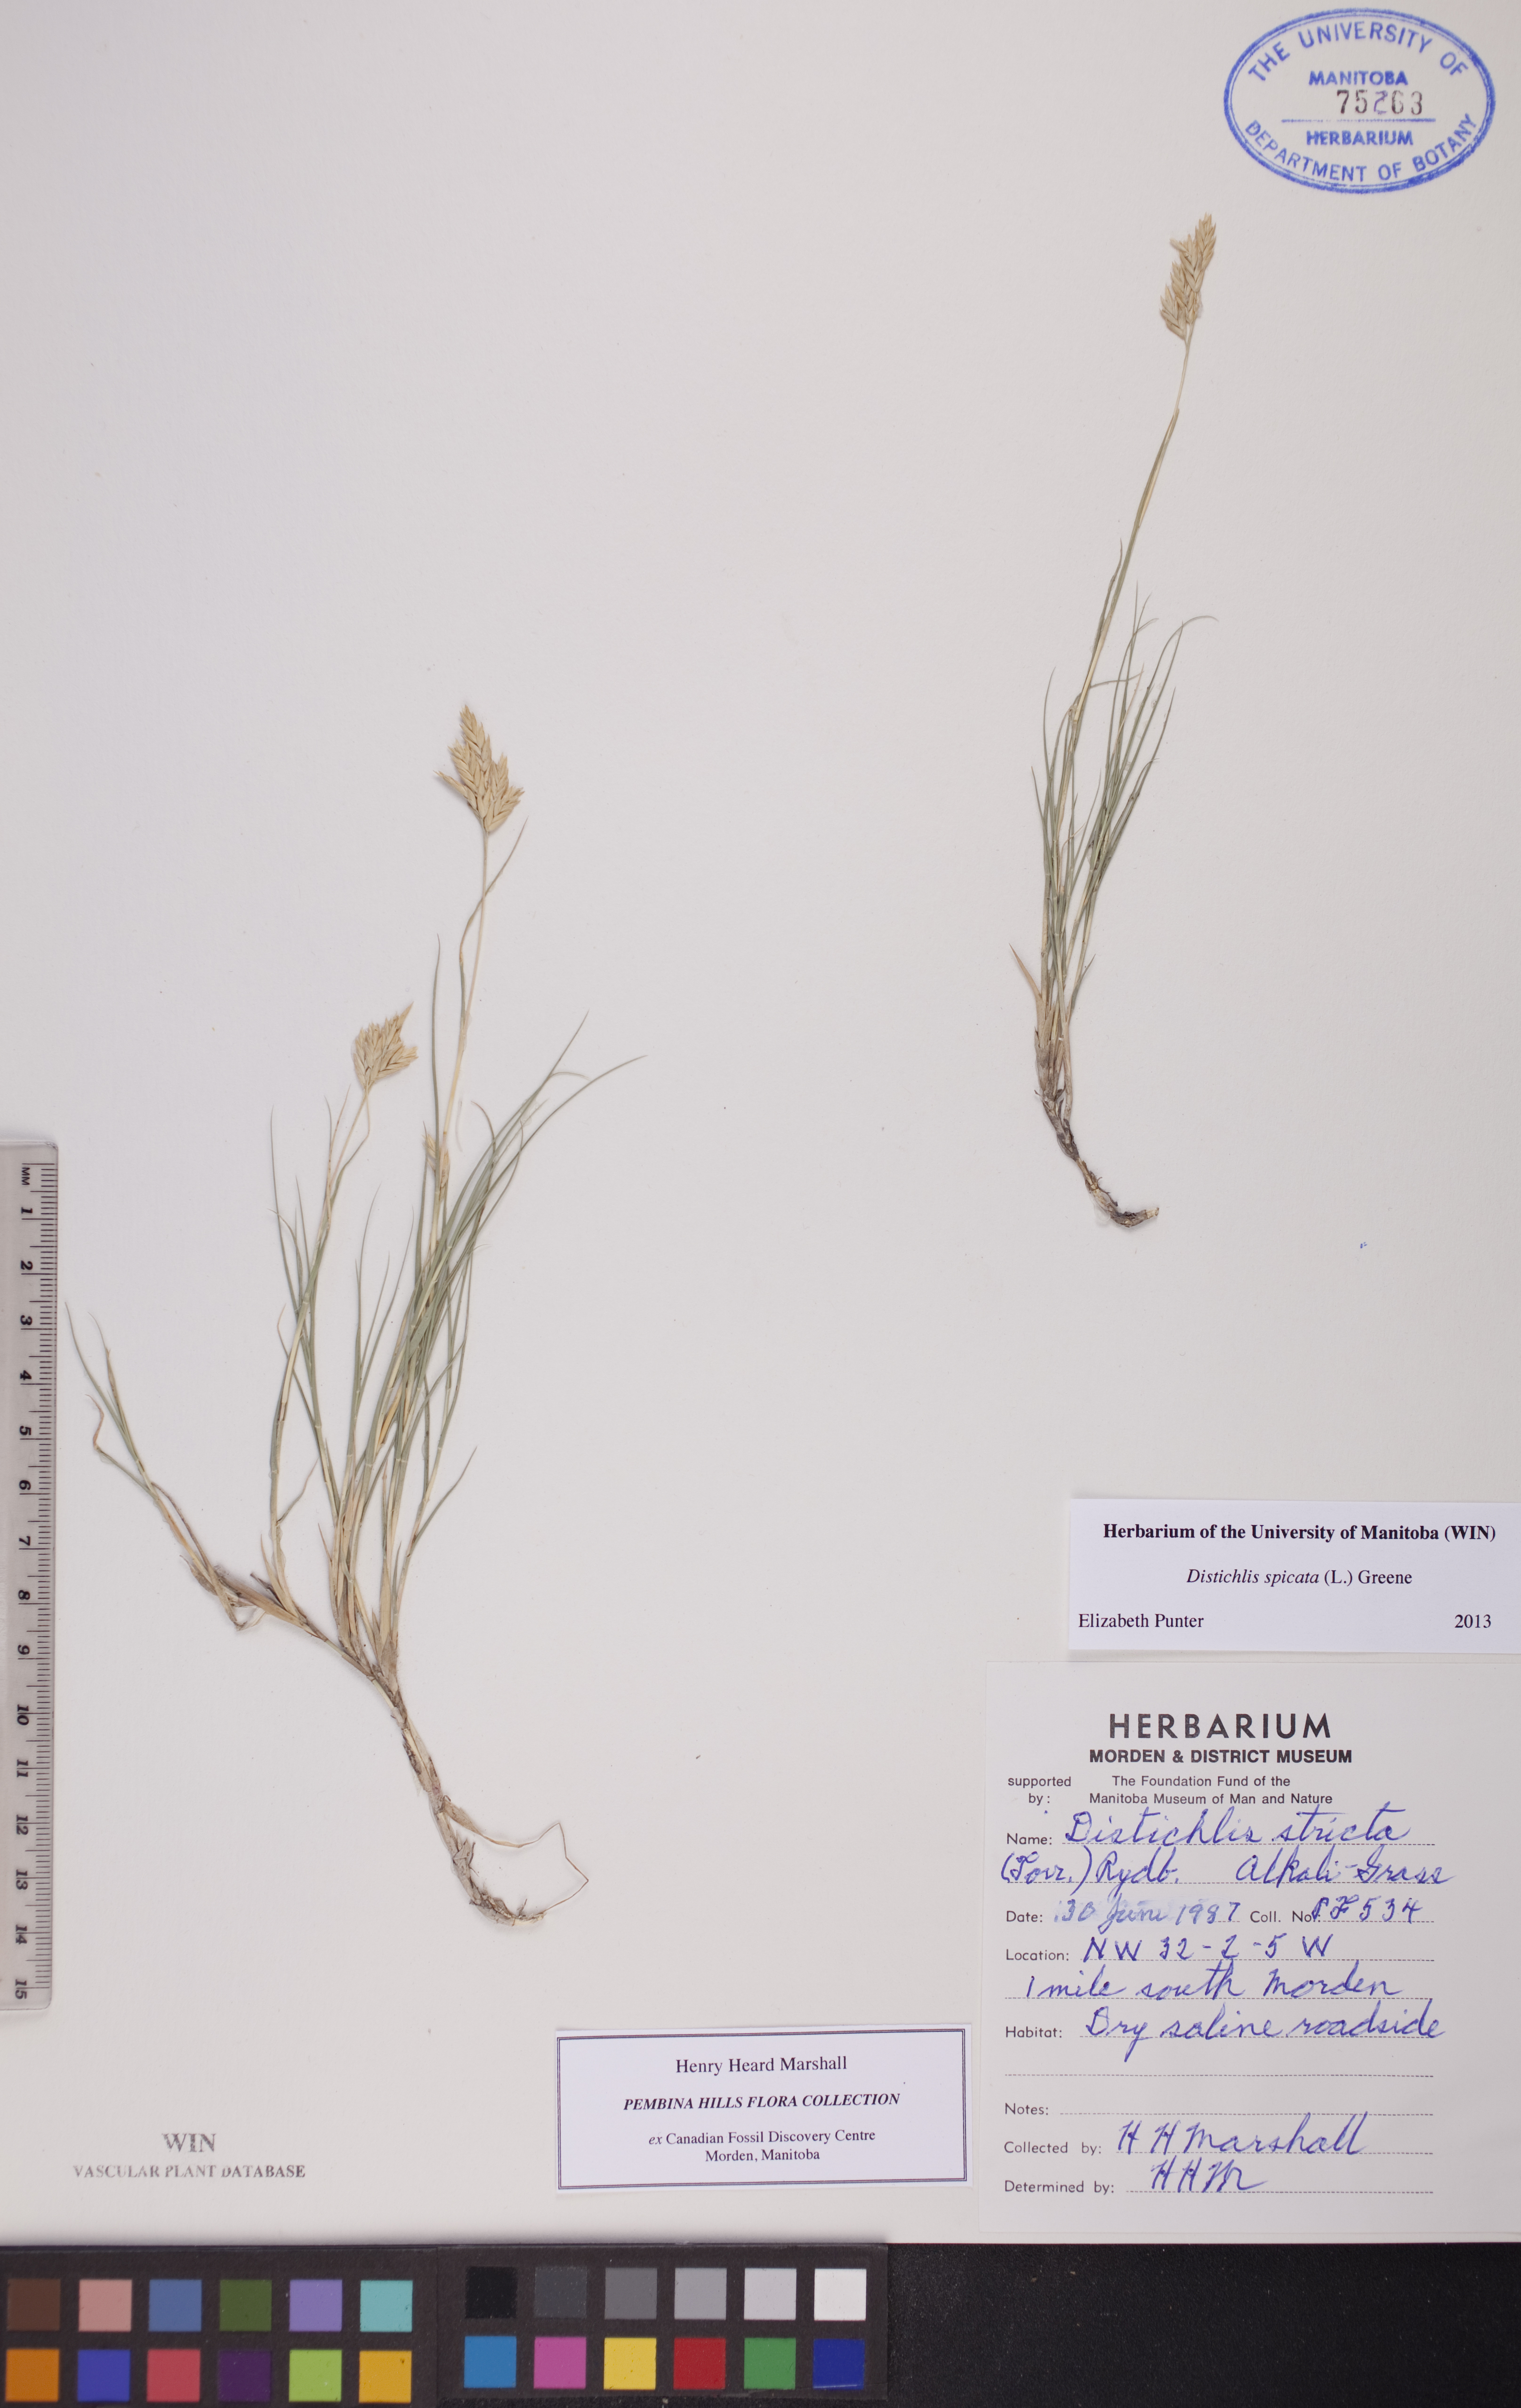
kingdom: Plantae
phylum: Tracheophyta
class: Liliopsida
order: Poales
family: Poaceae
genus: Distichlis
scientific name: Distichlis spicata
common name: Saltgrass
